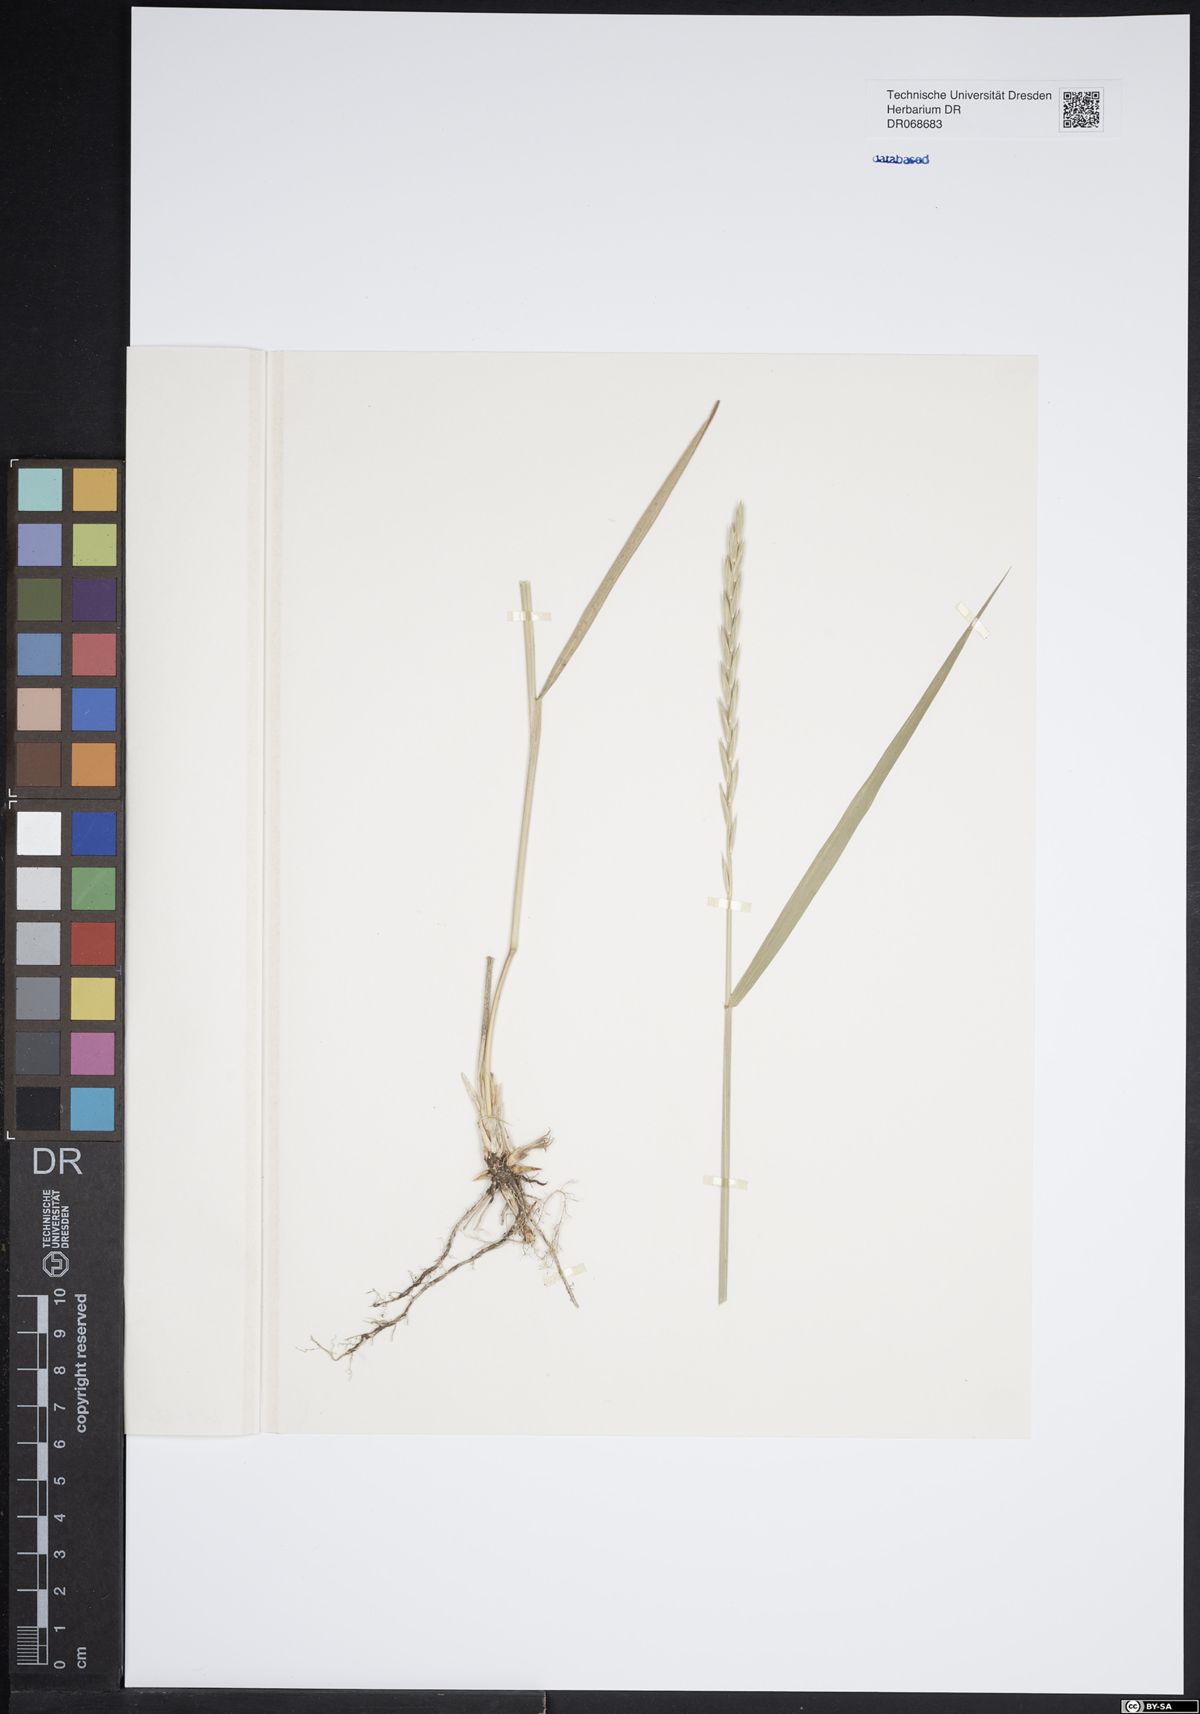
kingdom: Plantae
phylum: Tracheophyta
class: Liliopsida
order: Poales
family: Poaceae
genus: Elymus
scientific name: Elymus repens
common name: Quackgrass
